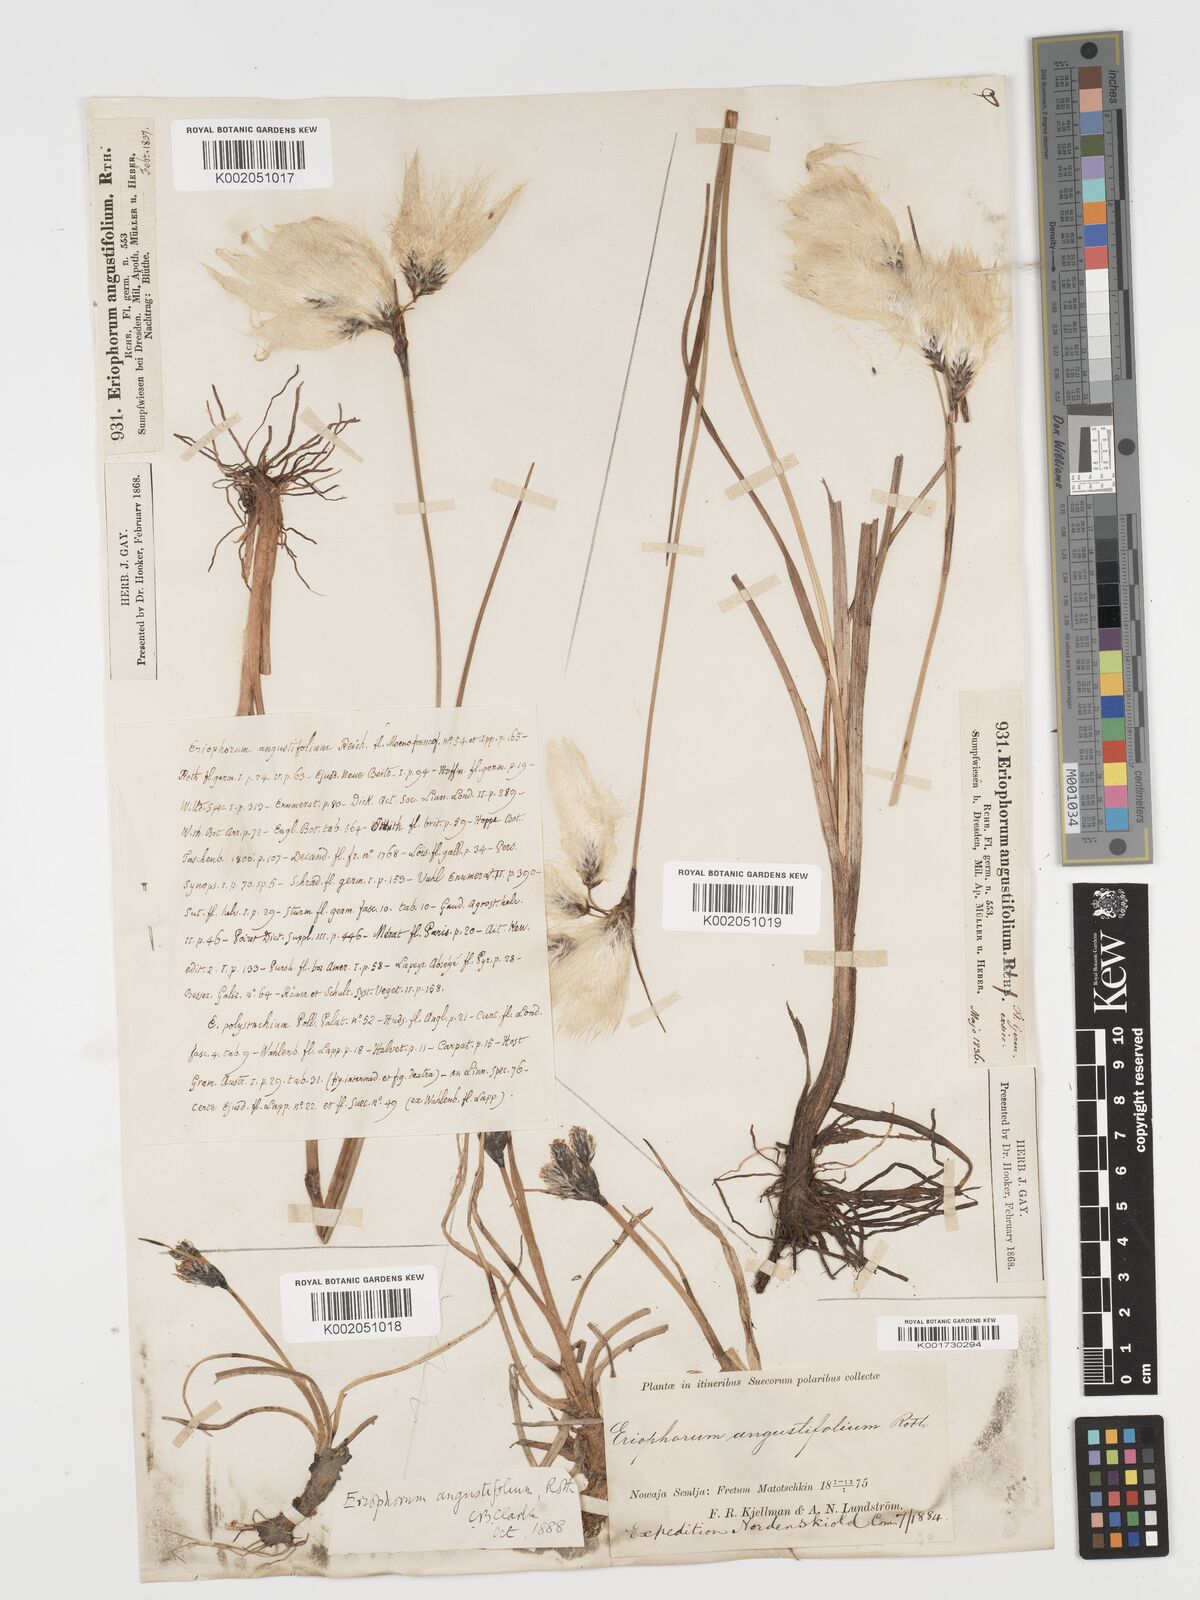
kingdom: Plantae
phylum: Tracheophyta
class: Liliopsida
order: Poales
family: Cyperaceae
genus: Eriophorum
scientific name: Eriophorum angustifolium
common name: Common cottongrass
